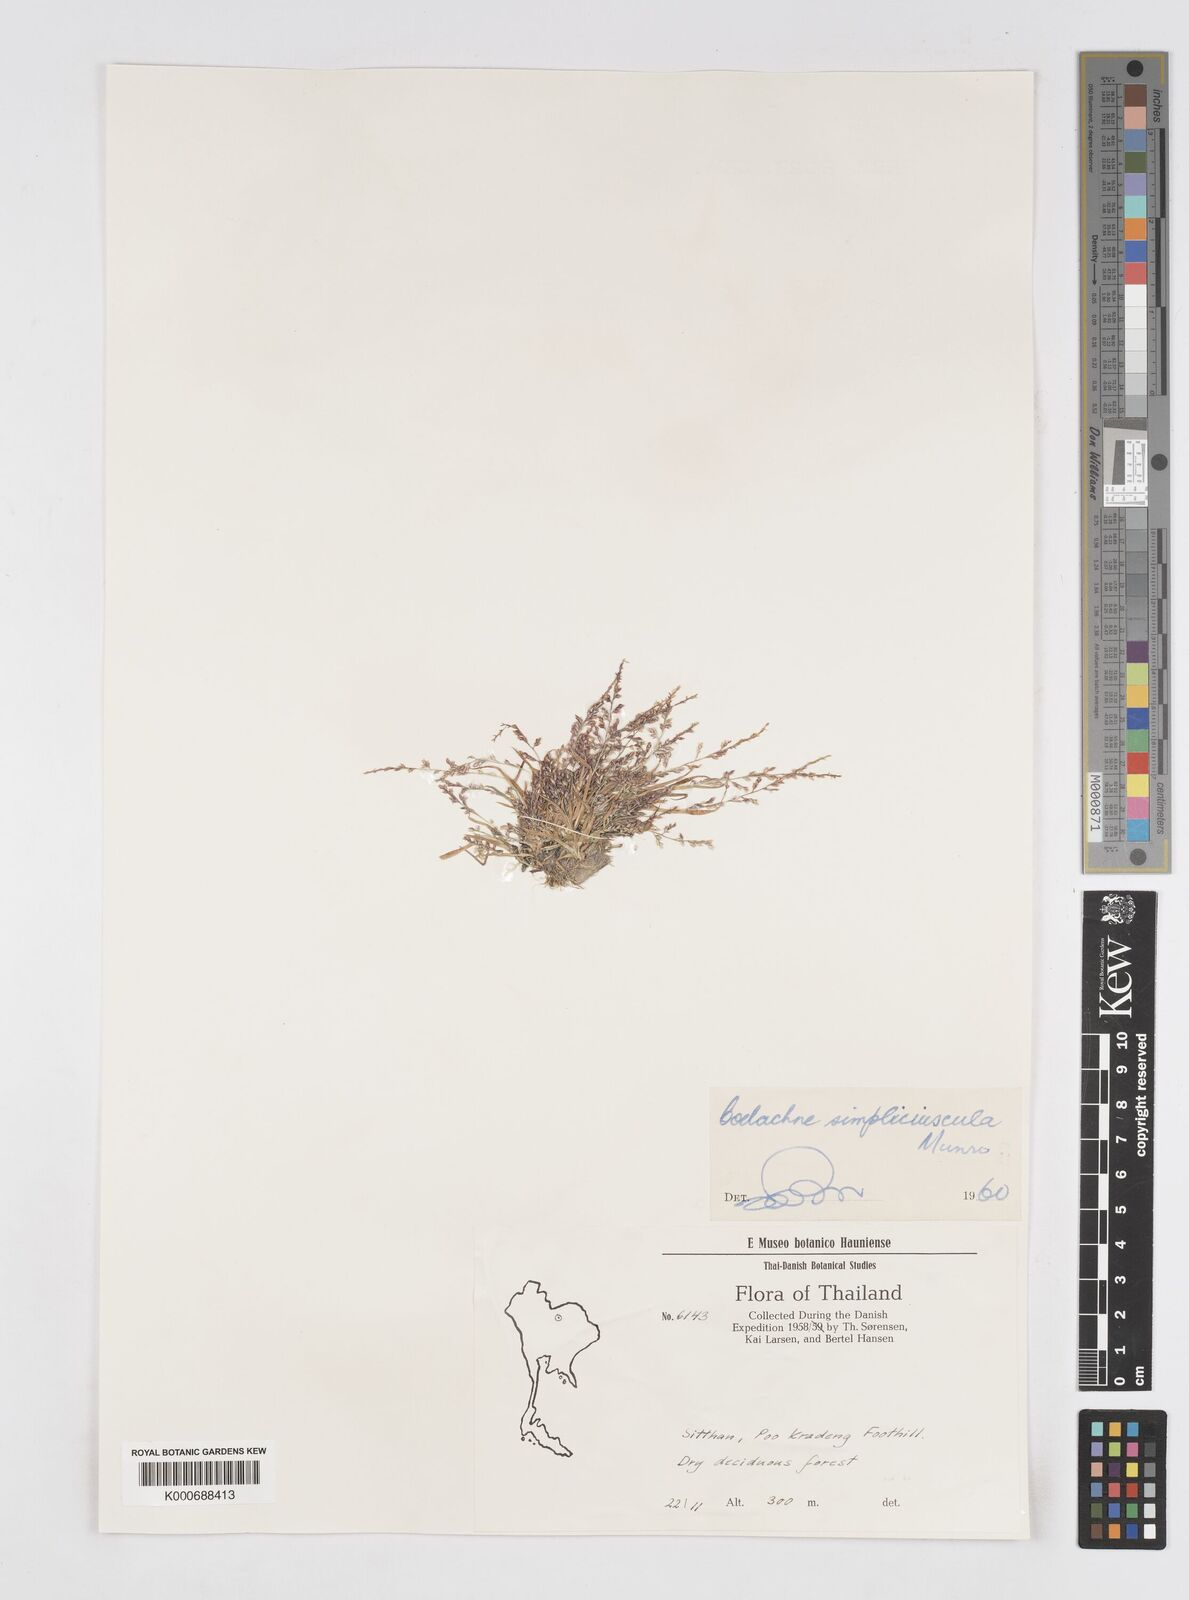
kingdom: Plantae
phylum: Tracheophyta
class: Liliopsida
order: Poales
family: Poaceae
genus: Coelachne
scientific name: Coelachne simpliciuscula
